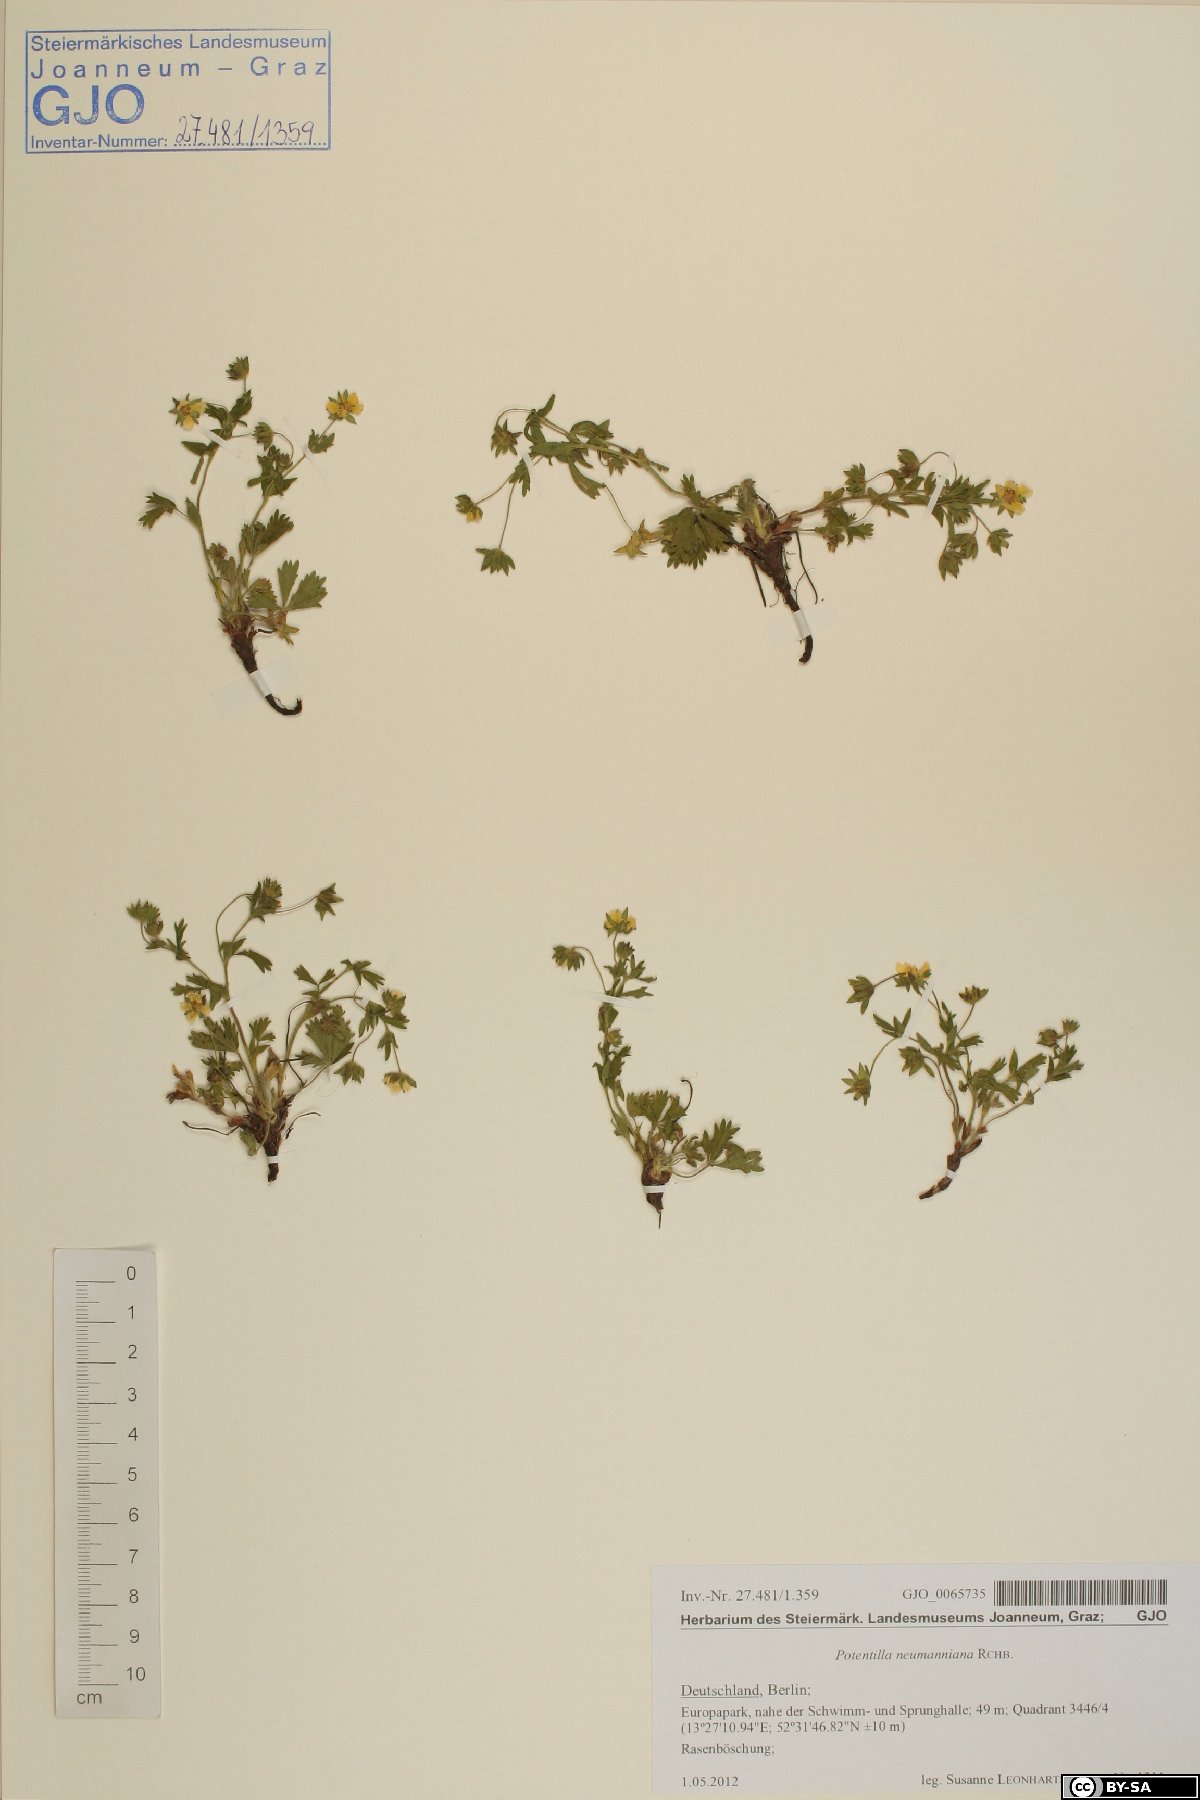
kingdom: Plantae
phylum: Tracheophyta
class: Magnoliopsida
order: Rosales
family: Rosaceae
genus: Potentilla
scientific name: Potentilla verna
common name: Spring cinquefoil
